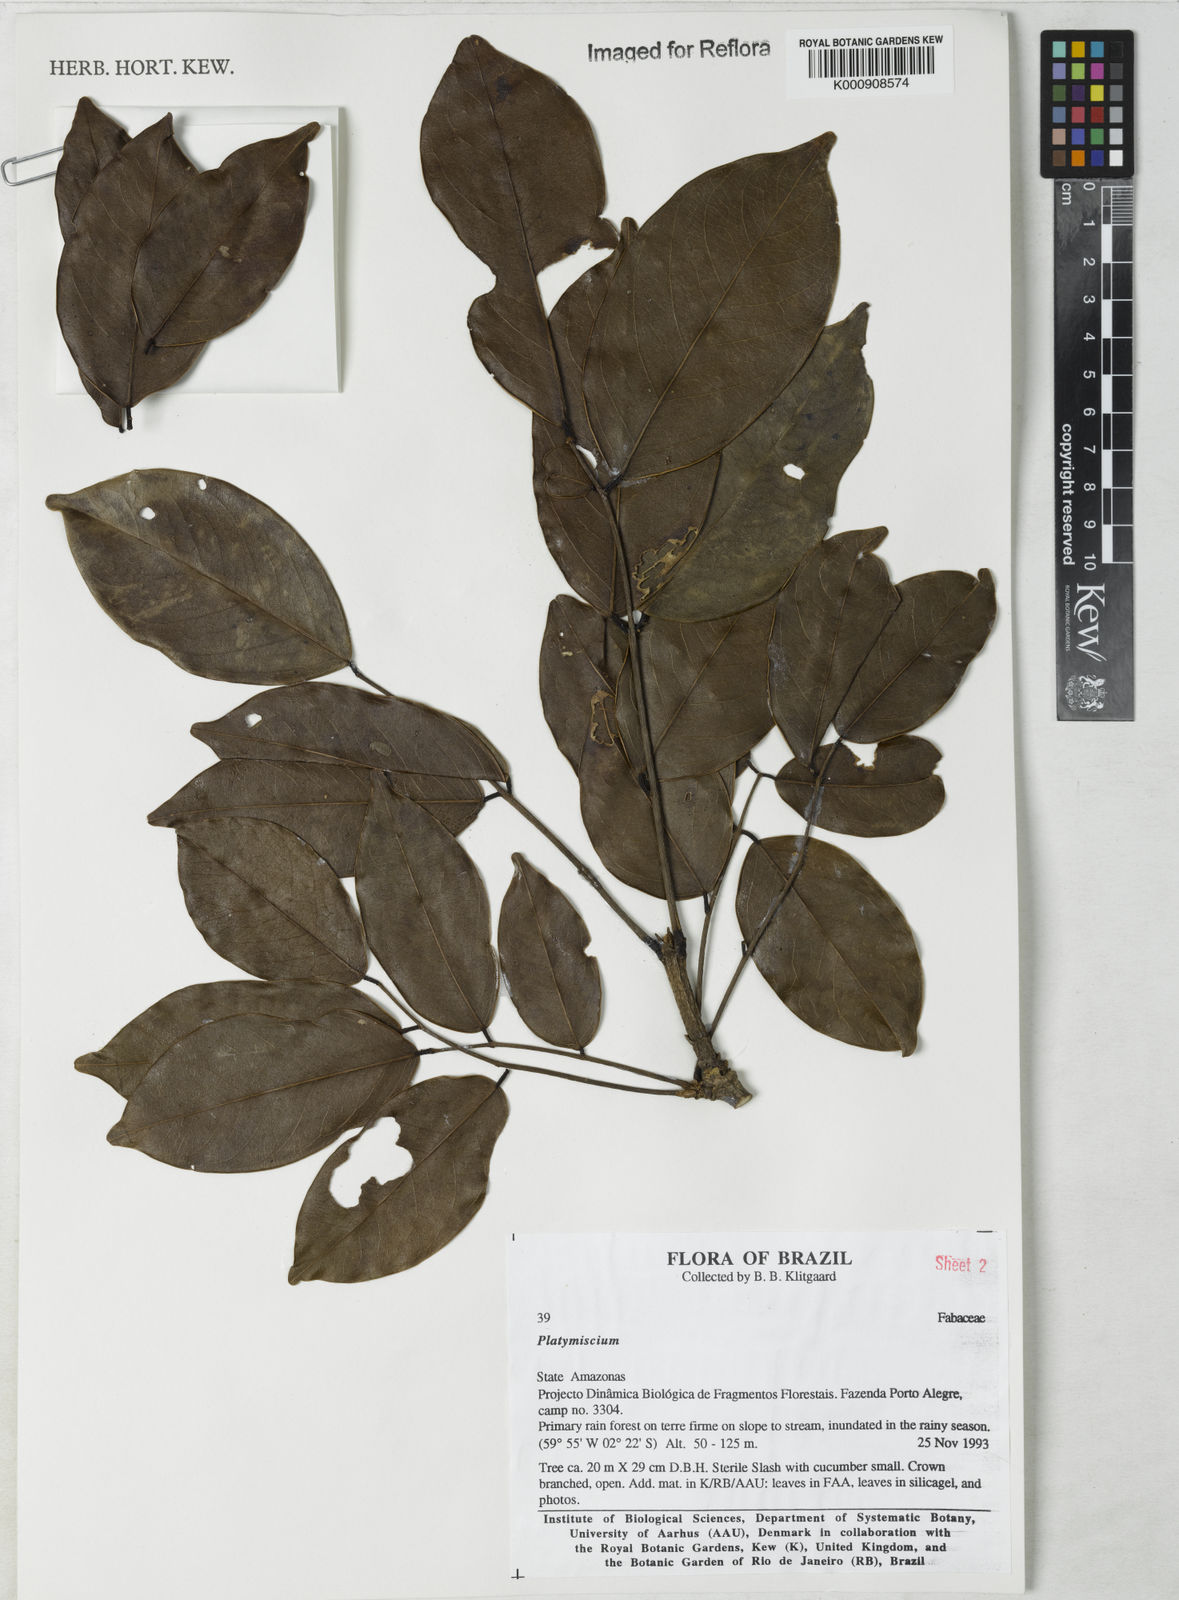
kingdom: Plantae
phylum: Tracheophyta
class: Magnoliopsida
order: Fabales
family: Fabaceae
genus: Platymiscium
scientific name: Platymiscium
